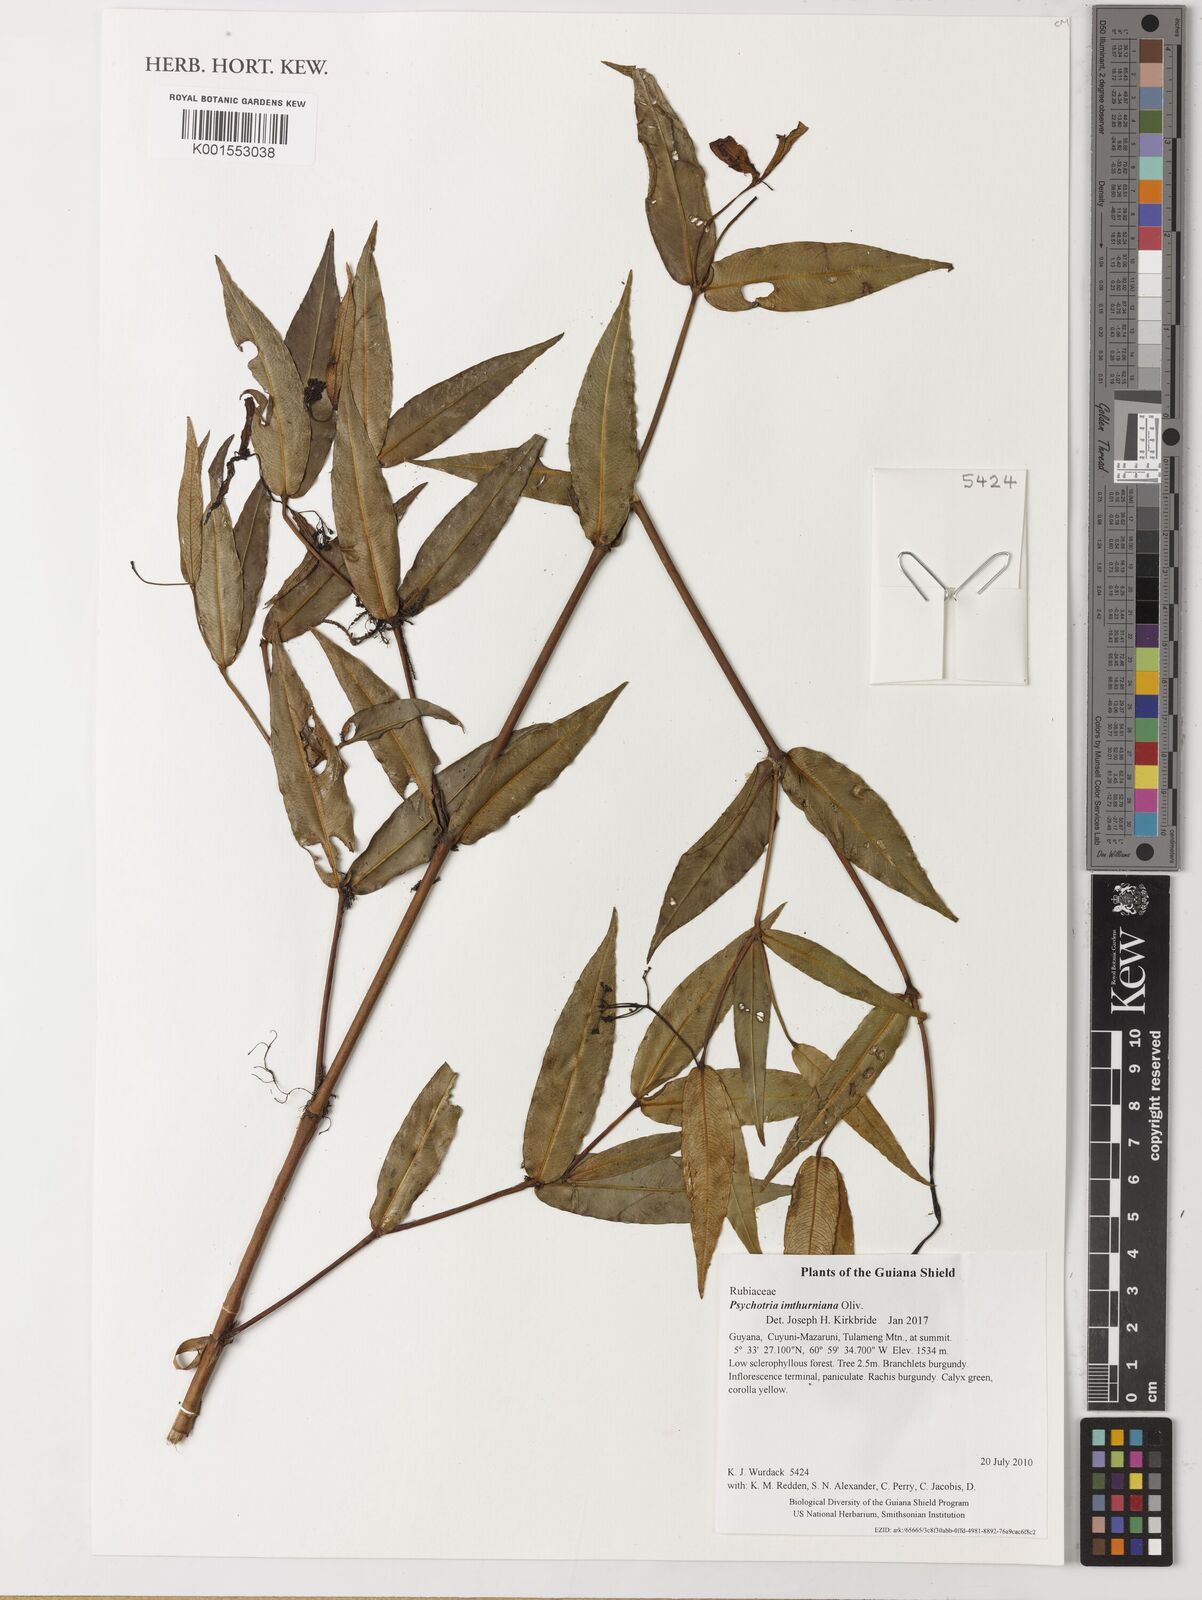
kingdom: Plantae
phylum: Tracheophyta
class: Magnoliopsida
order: Gentianales
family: Rubiaceae
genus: Palicourea
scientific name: Palicourea imthurniana
